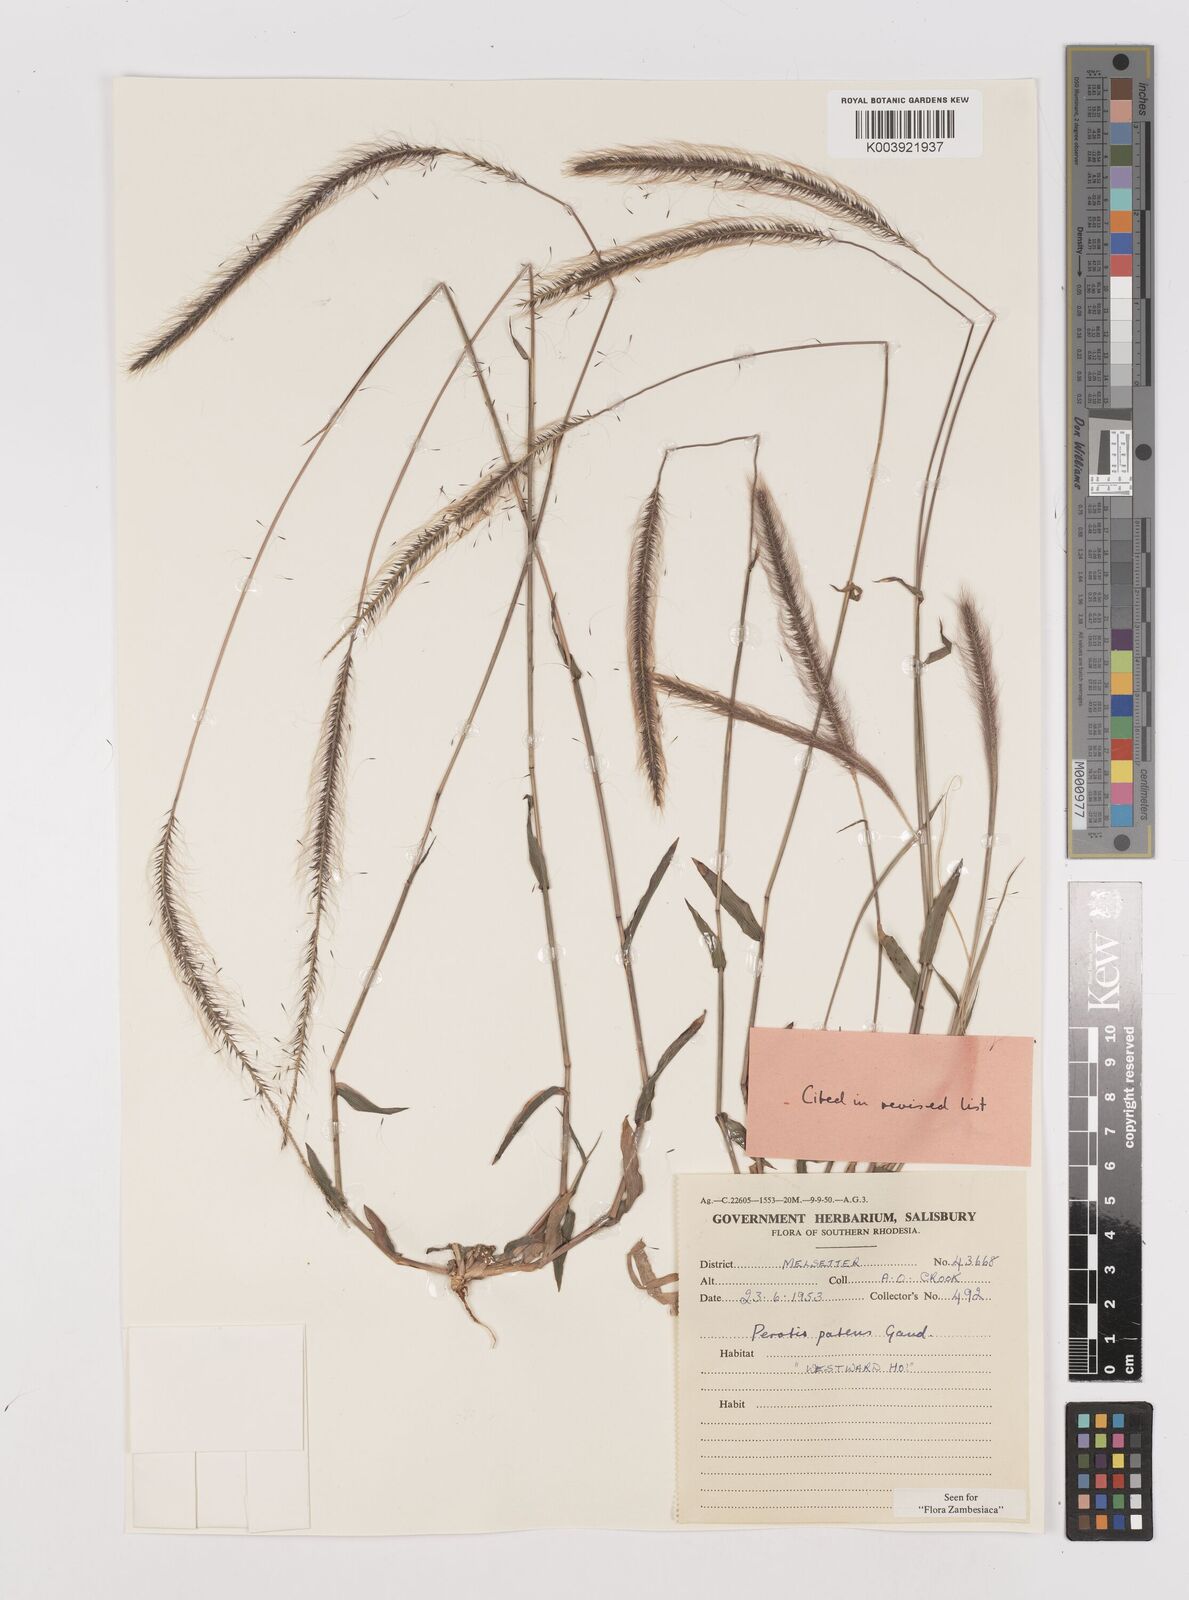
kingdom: Plantae
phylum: Tracheophyta
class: Liliopsida
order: Poales
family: Poaceae
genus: Perotis
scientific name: Perotis patens
